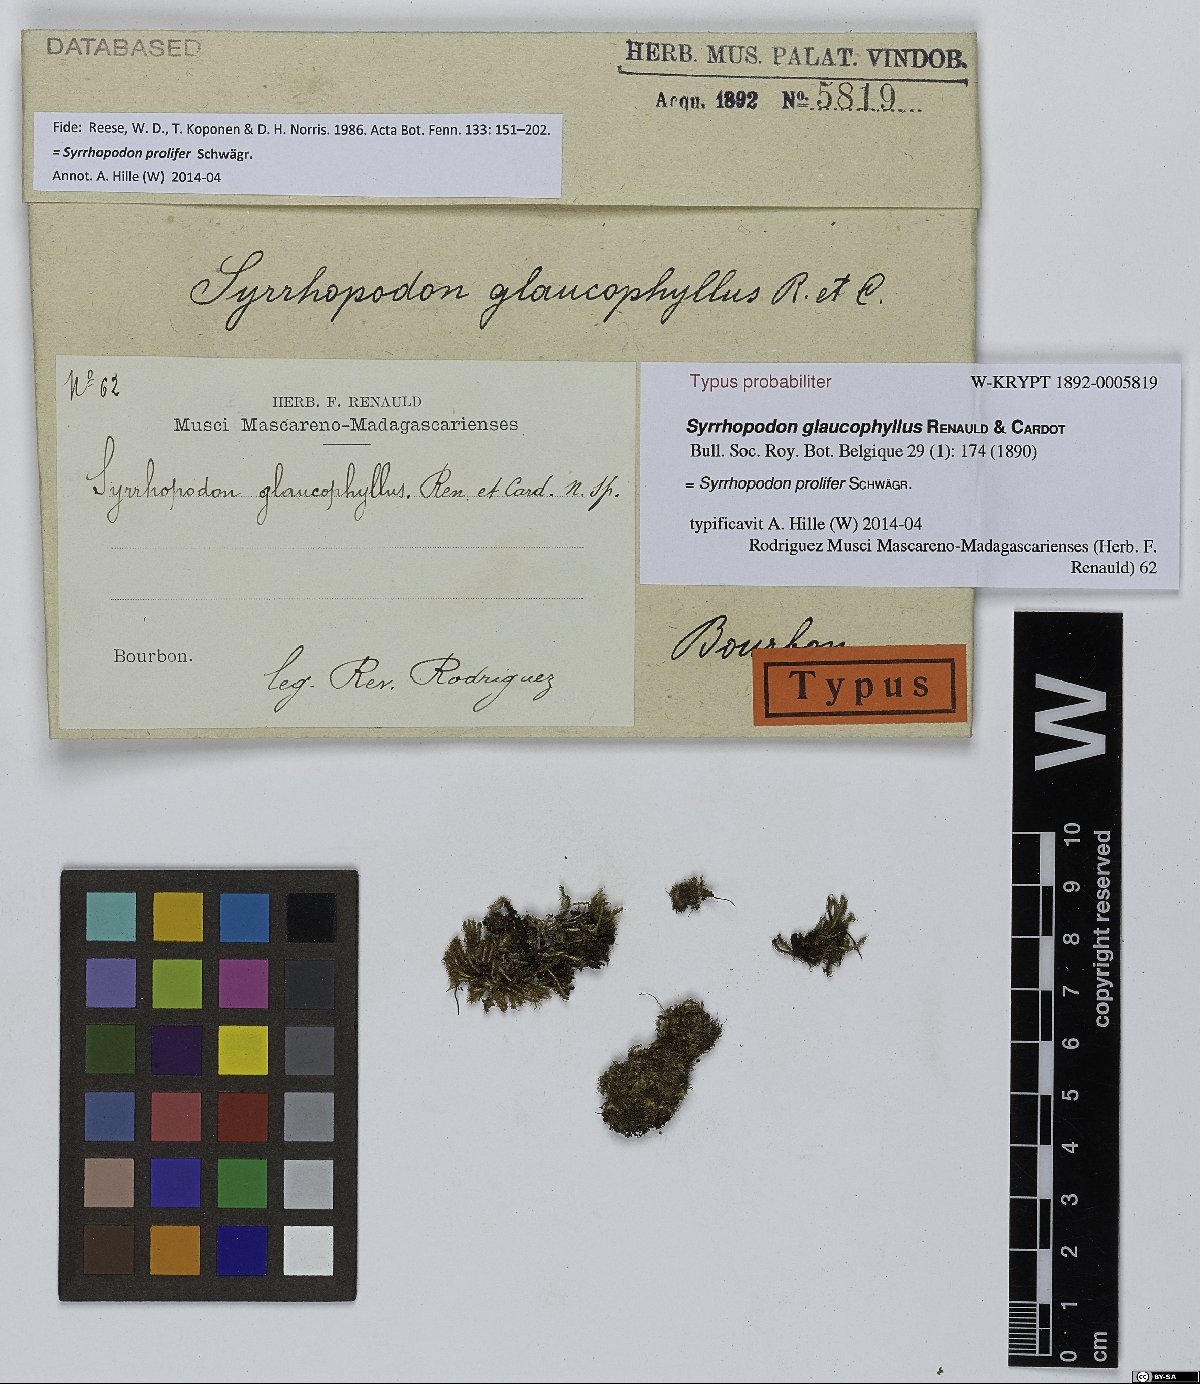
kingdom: Plantae
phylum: Bryophyta
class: Bryopsida
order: Dicranales
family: Calymperaceae
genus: Syrrhopodon
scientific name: Syrrhopodon apertifolius
